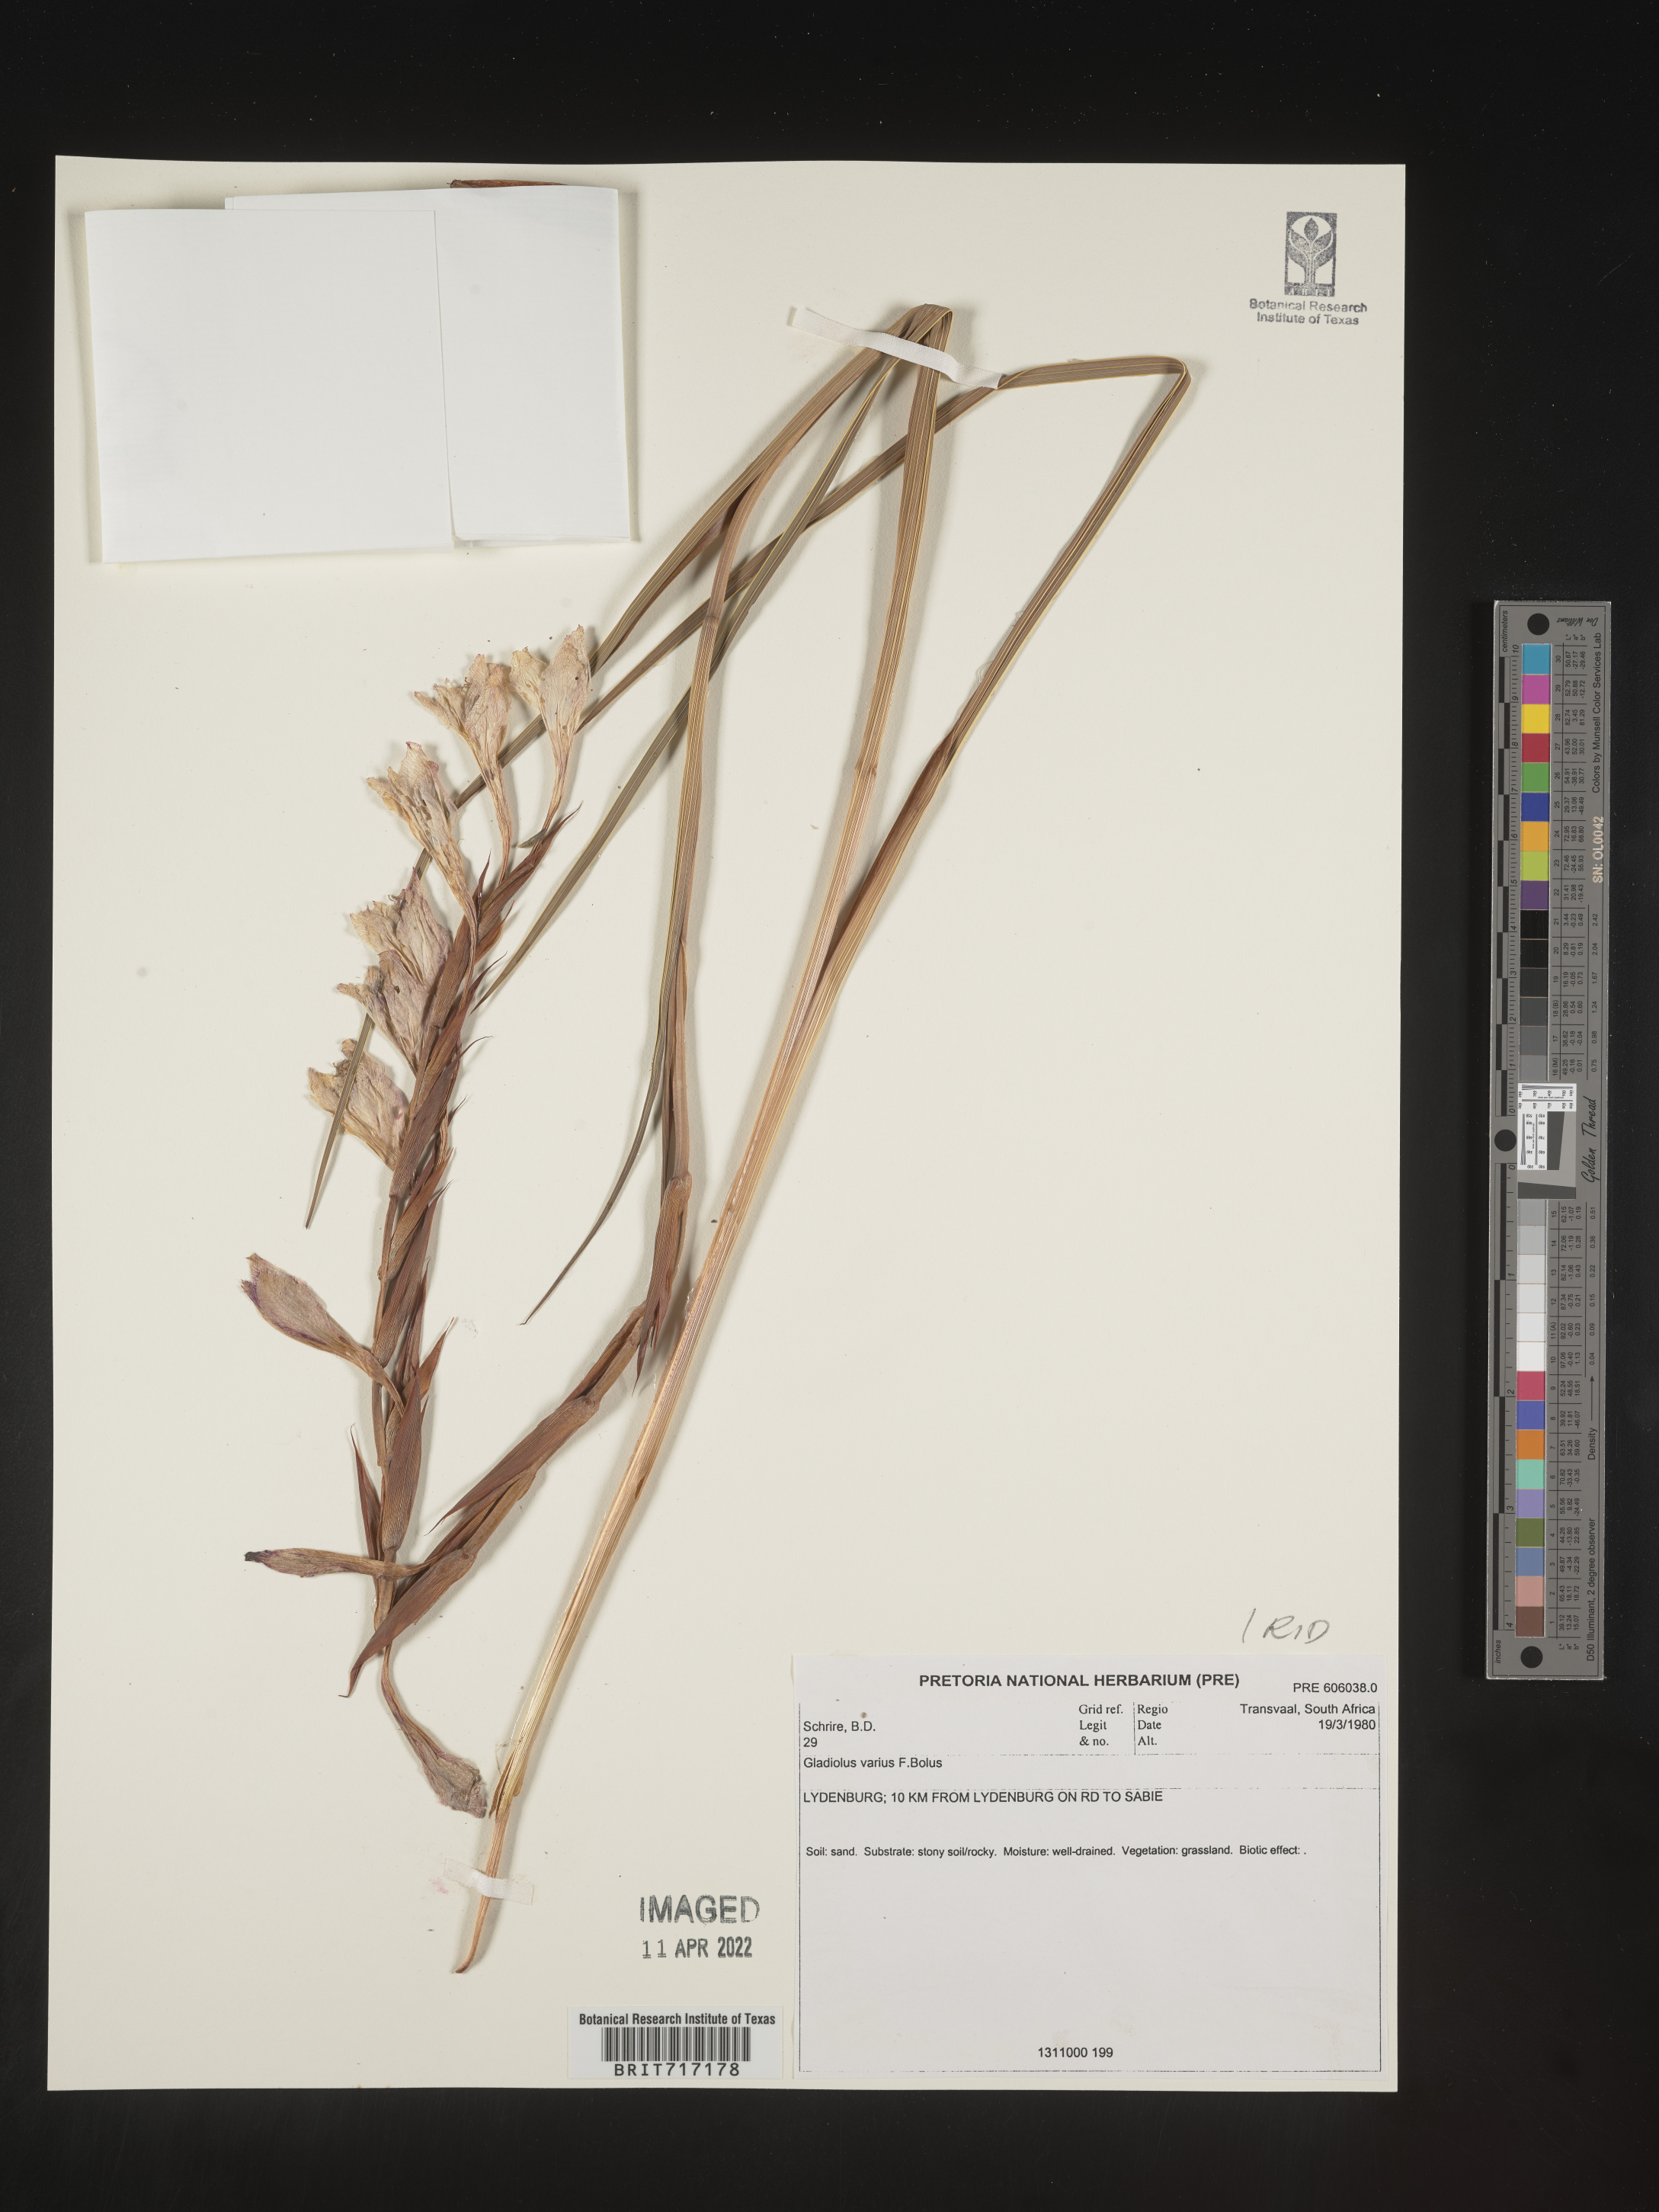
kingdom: Plantae
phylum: Tracheophyta
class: Liliopsida
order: Asparagales
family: Iridaceae
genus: Gladiolus
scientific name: Gladiolus
